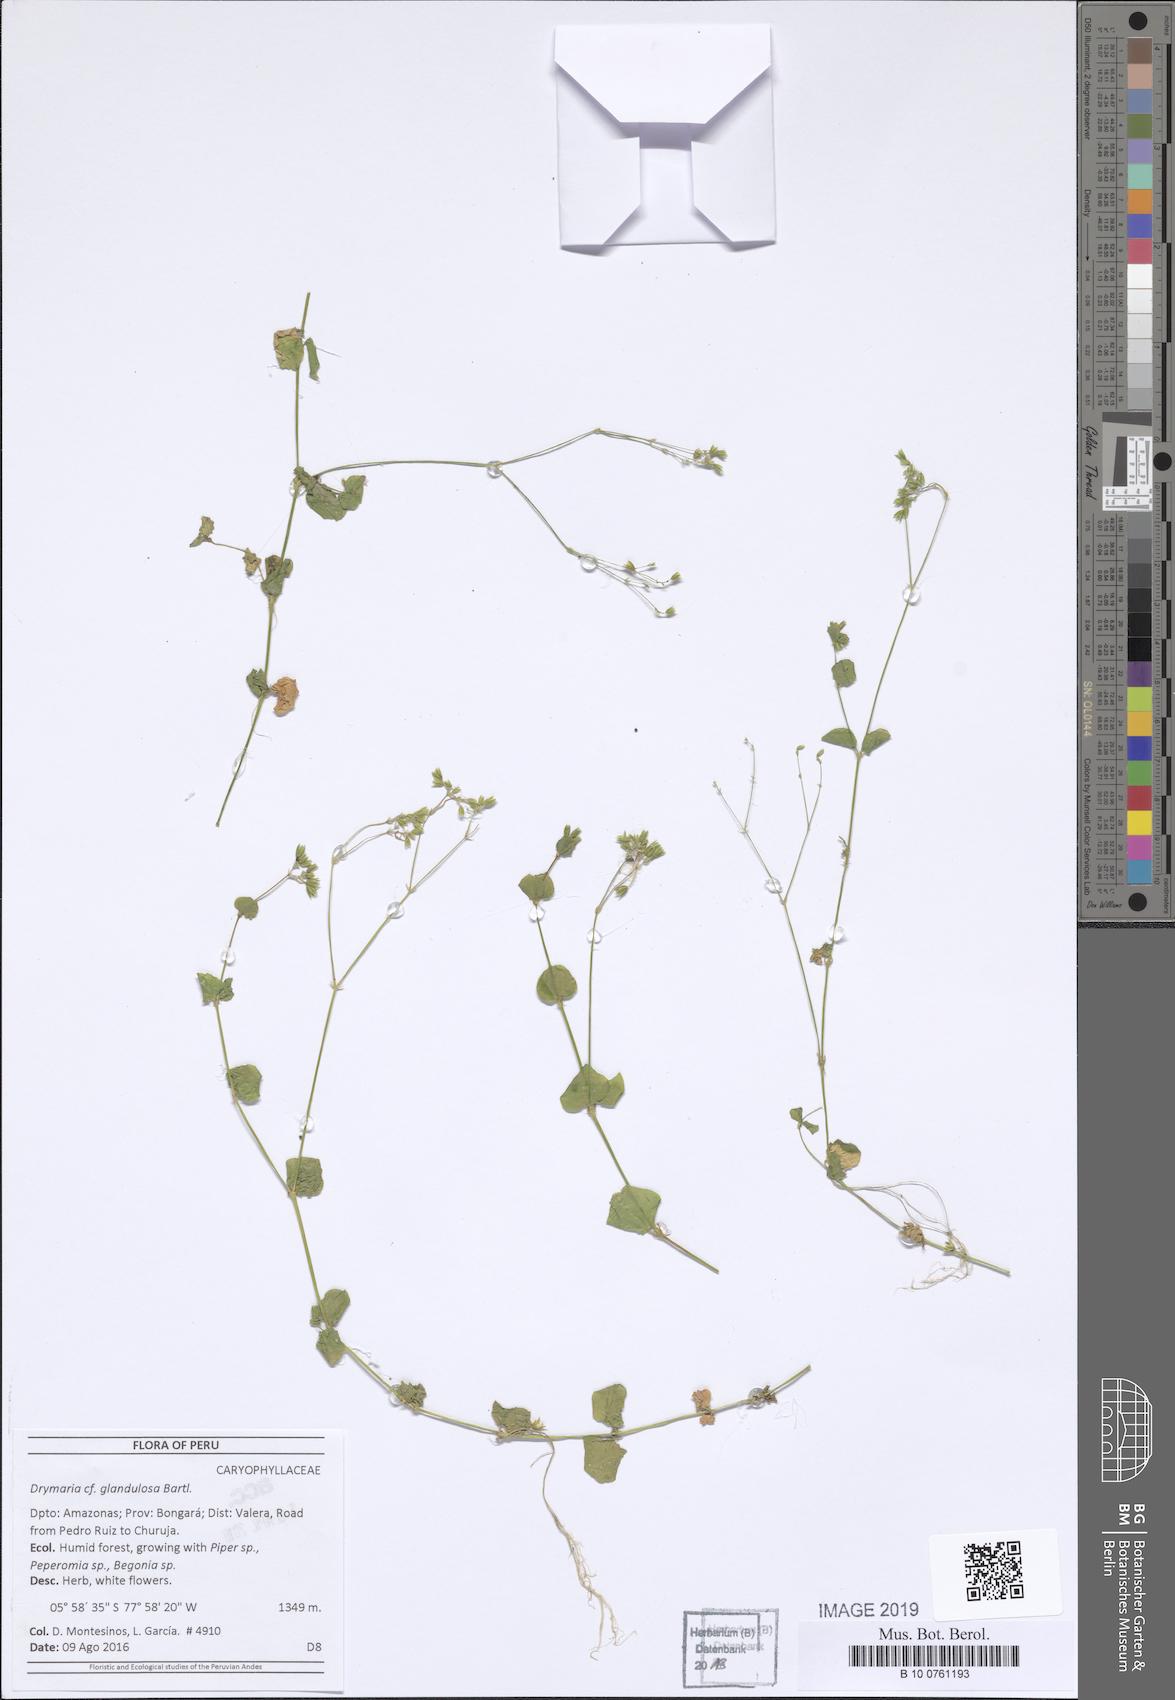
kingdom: Plantae
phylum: Tracheophyta
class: Magnoliopsida
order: Caryophyllales
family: Caryophyllaceae
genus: Drymaria
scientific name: Drymaria glandulosa
